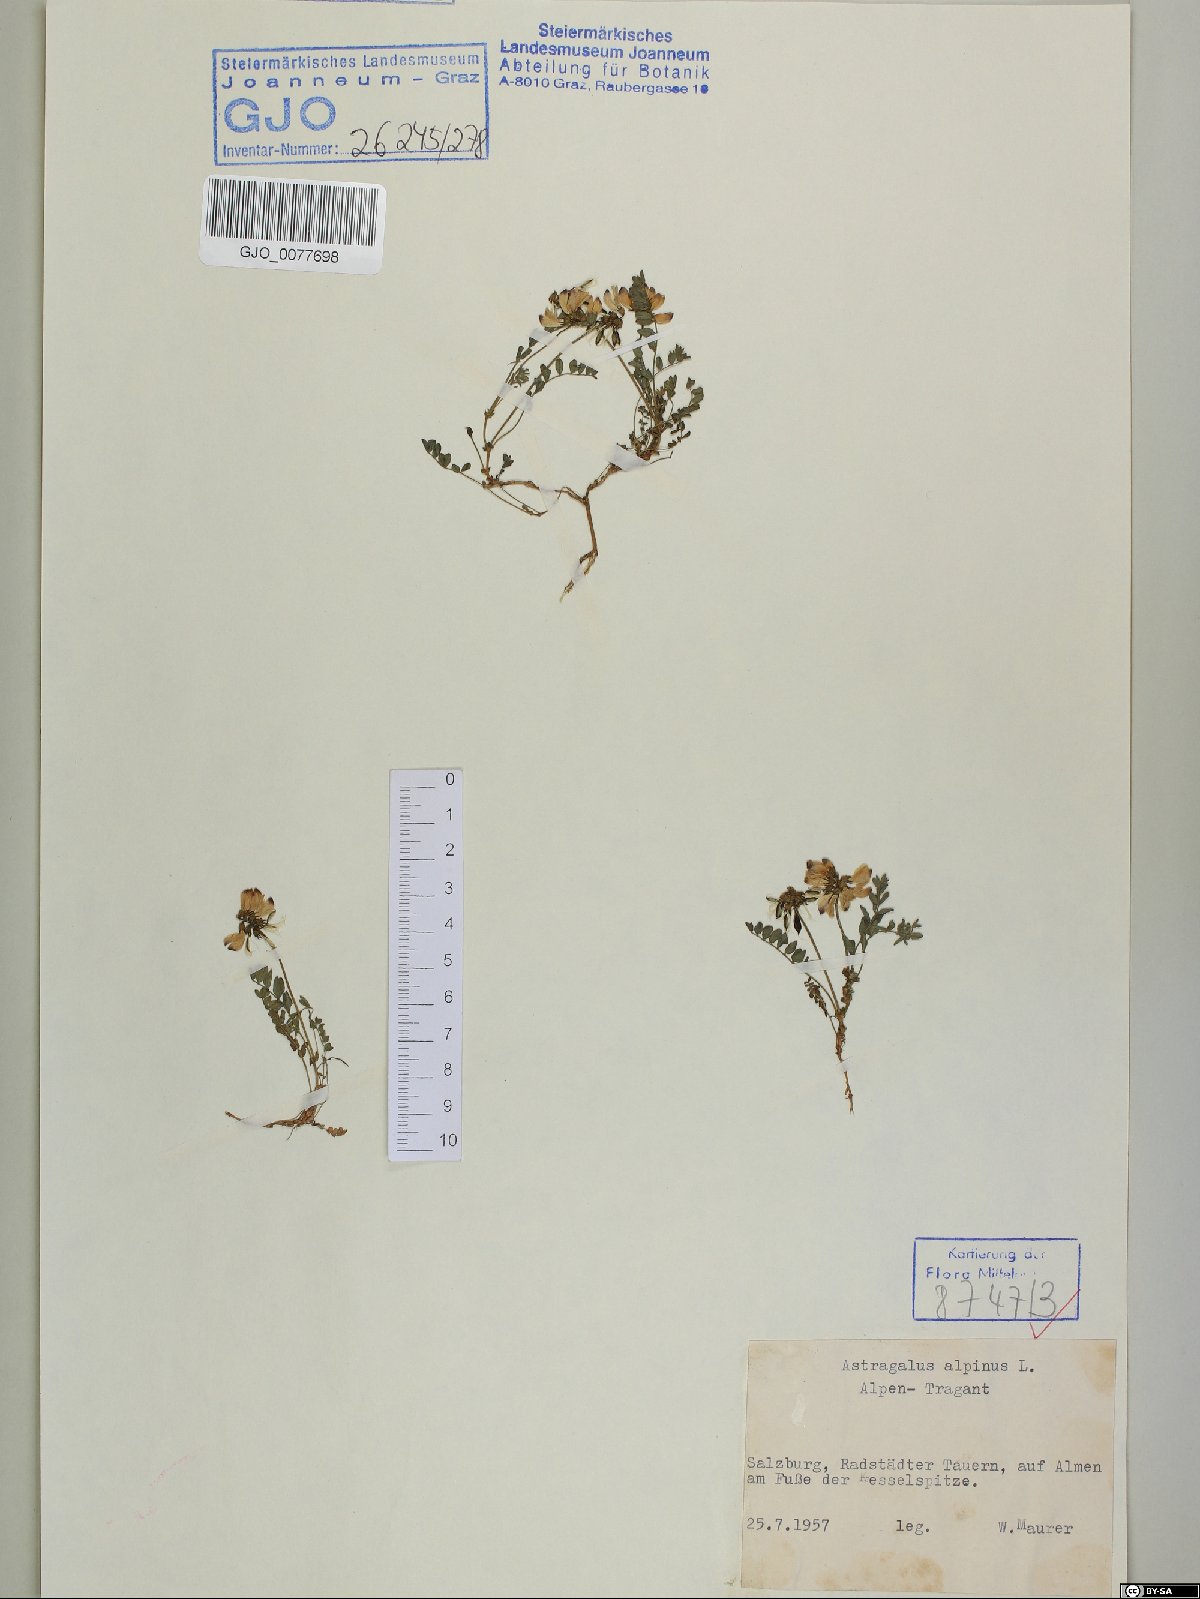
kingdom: Plantae
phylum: Tracheophyta
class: Magnoliopsida
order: Fabales
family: Fabaceae
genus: Astragalus
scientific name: Astragalus alpinus
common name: Alpine milk-vetch
